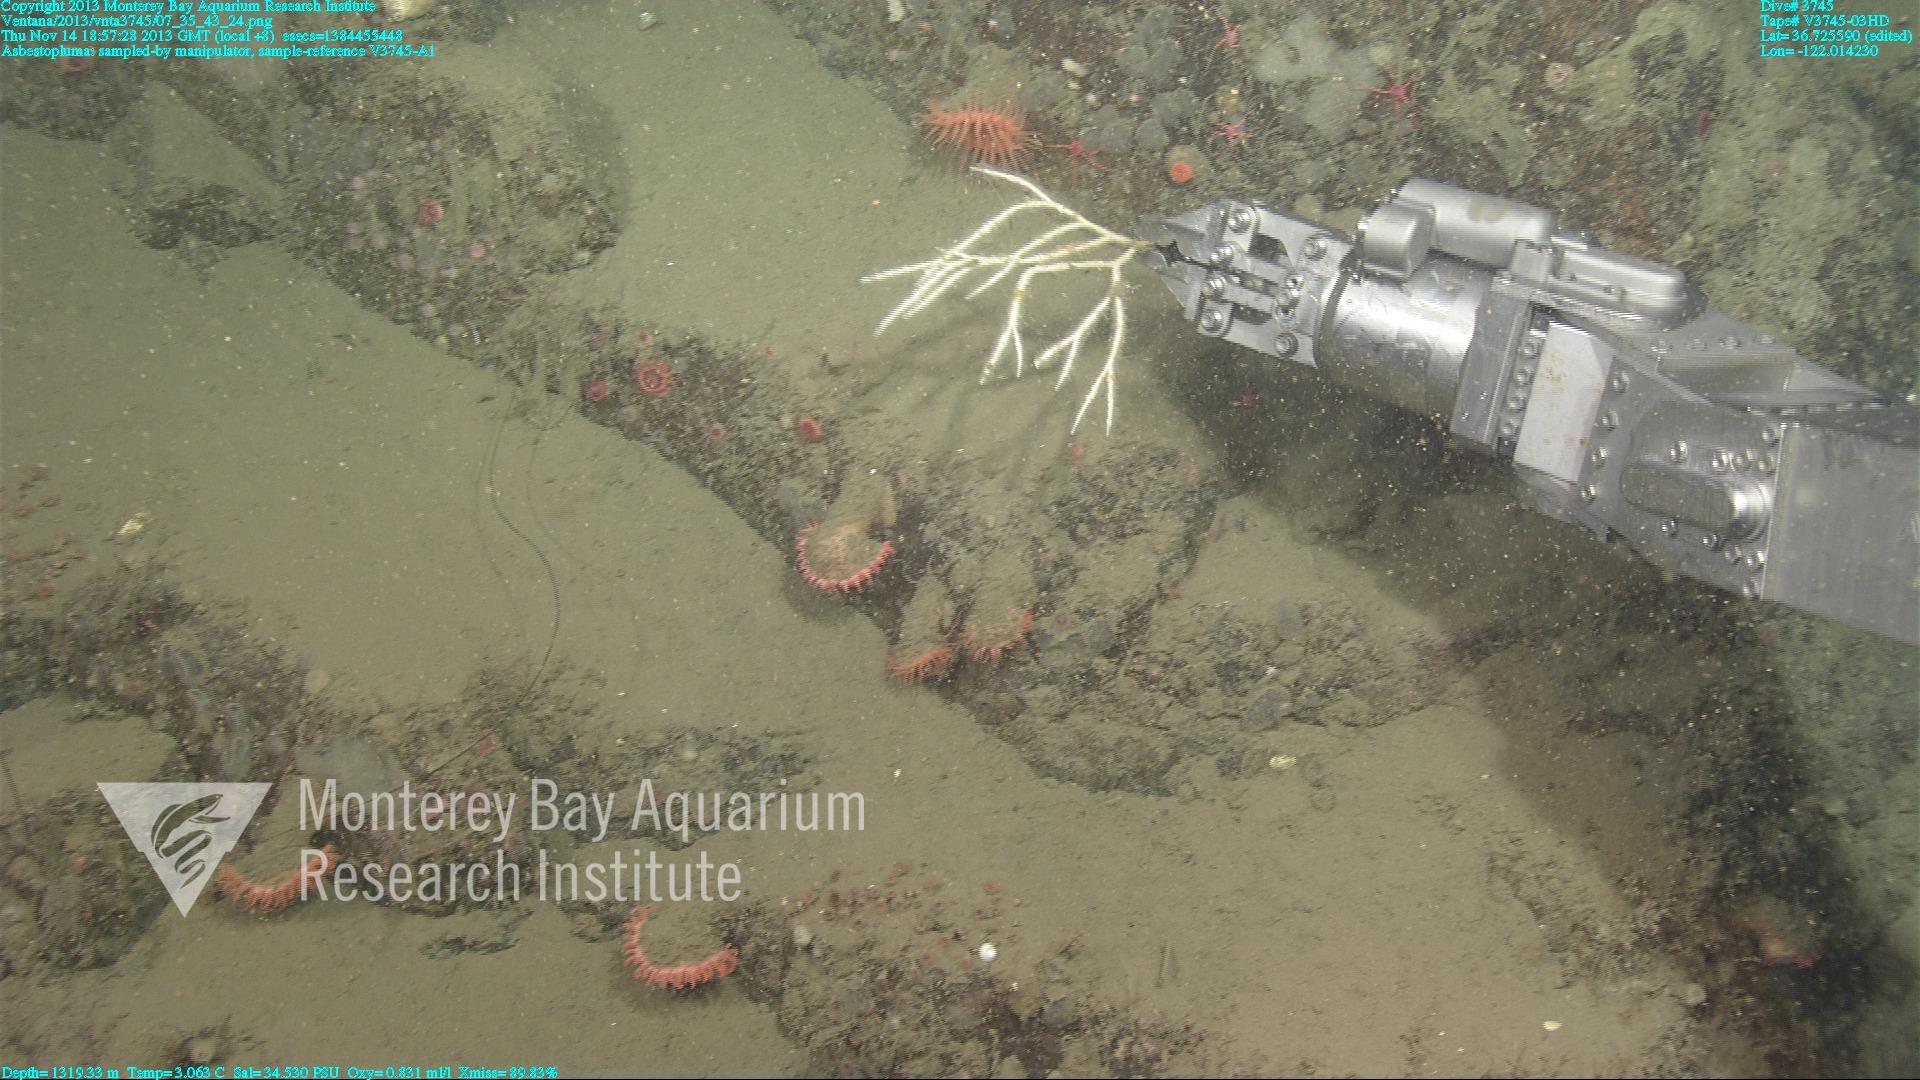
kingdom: Animalia
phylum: Porifera
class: Demospongiae
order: Poecilosclerida
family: Cladorhizidae
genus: Asbestopluma
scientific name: Asbestopluma
